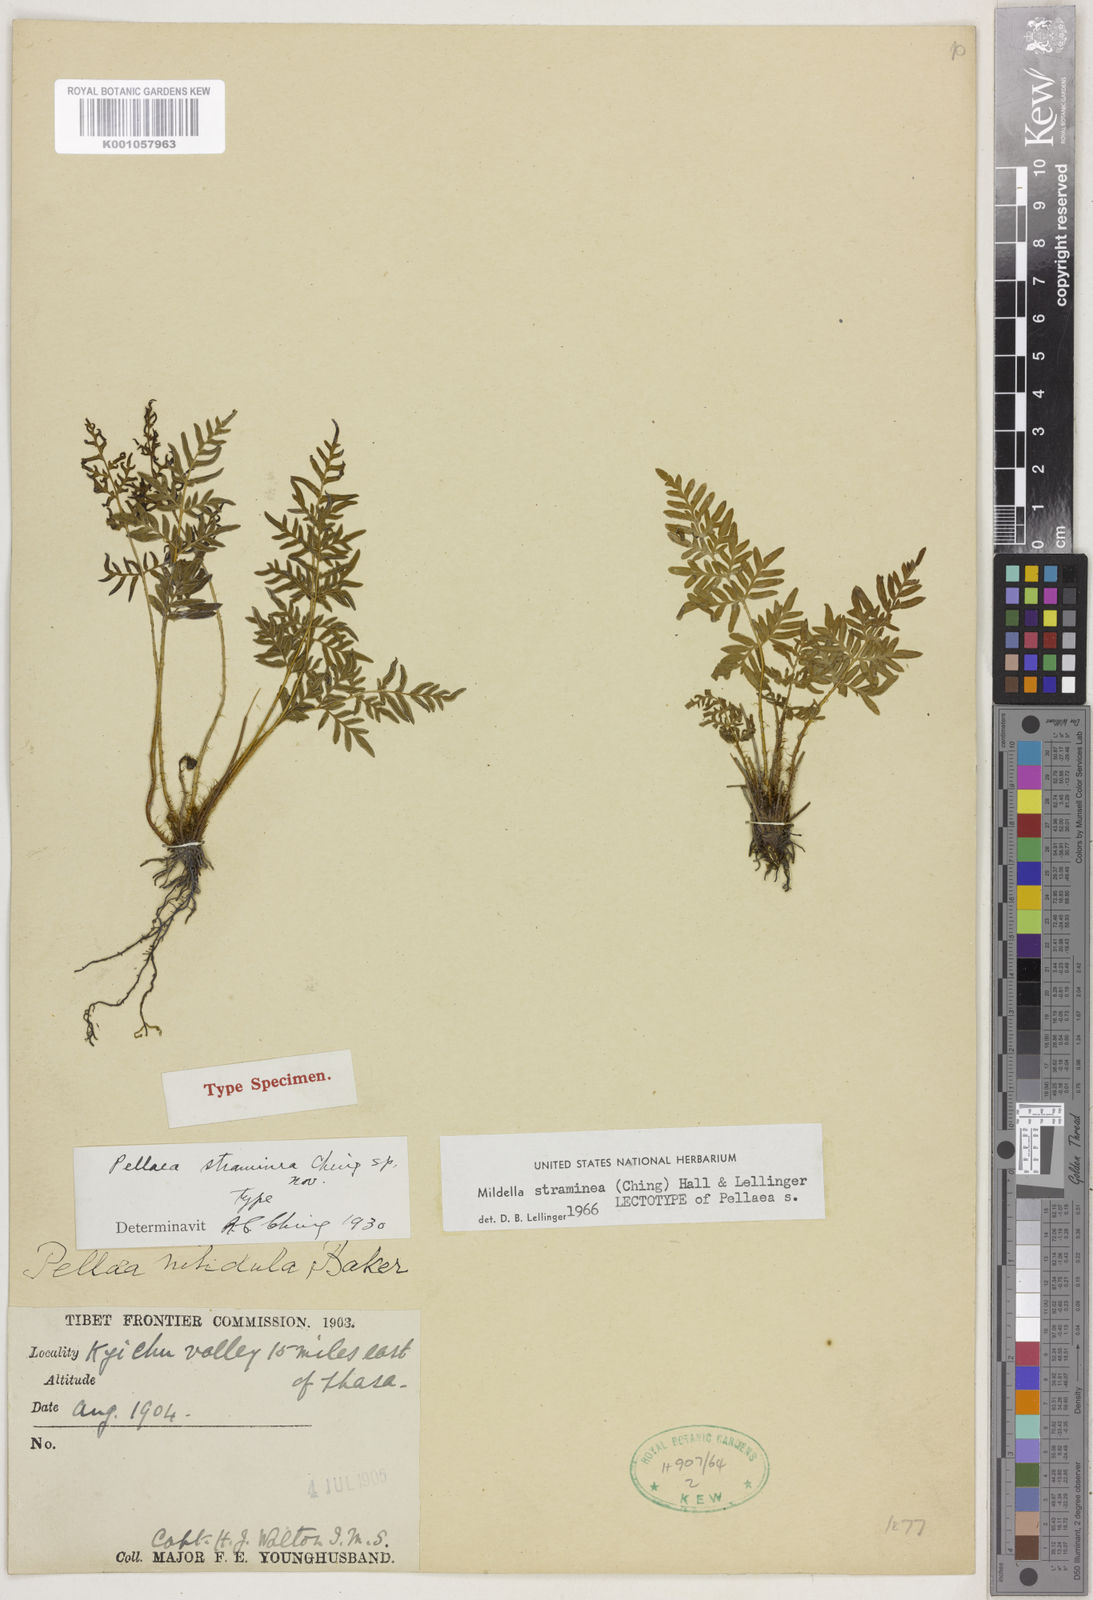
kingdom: Plantae
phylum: Tracheophyta
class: Polypodiopsida
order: Polypodiales
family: Pteridaceae
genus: Oeosporangium
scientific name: Oeosporangium stramineum
